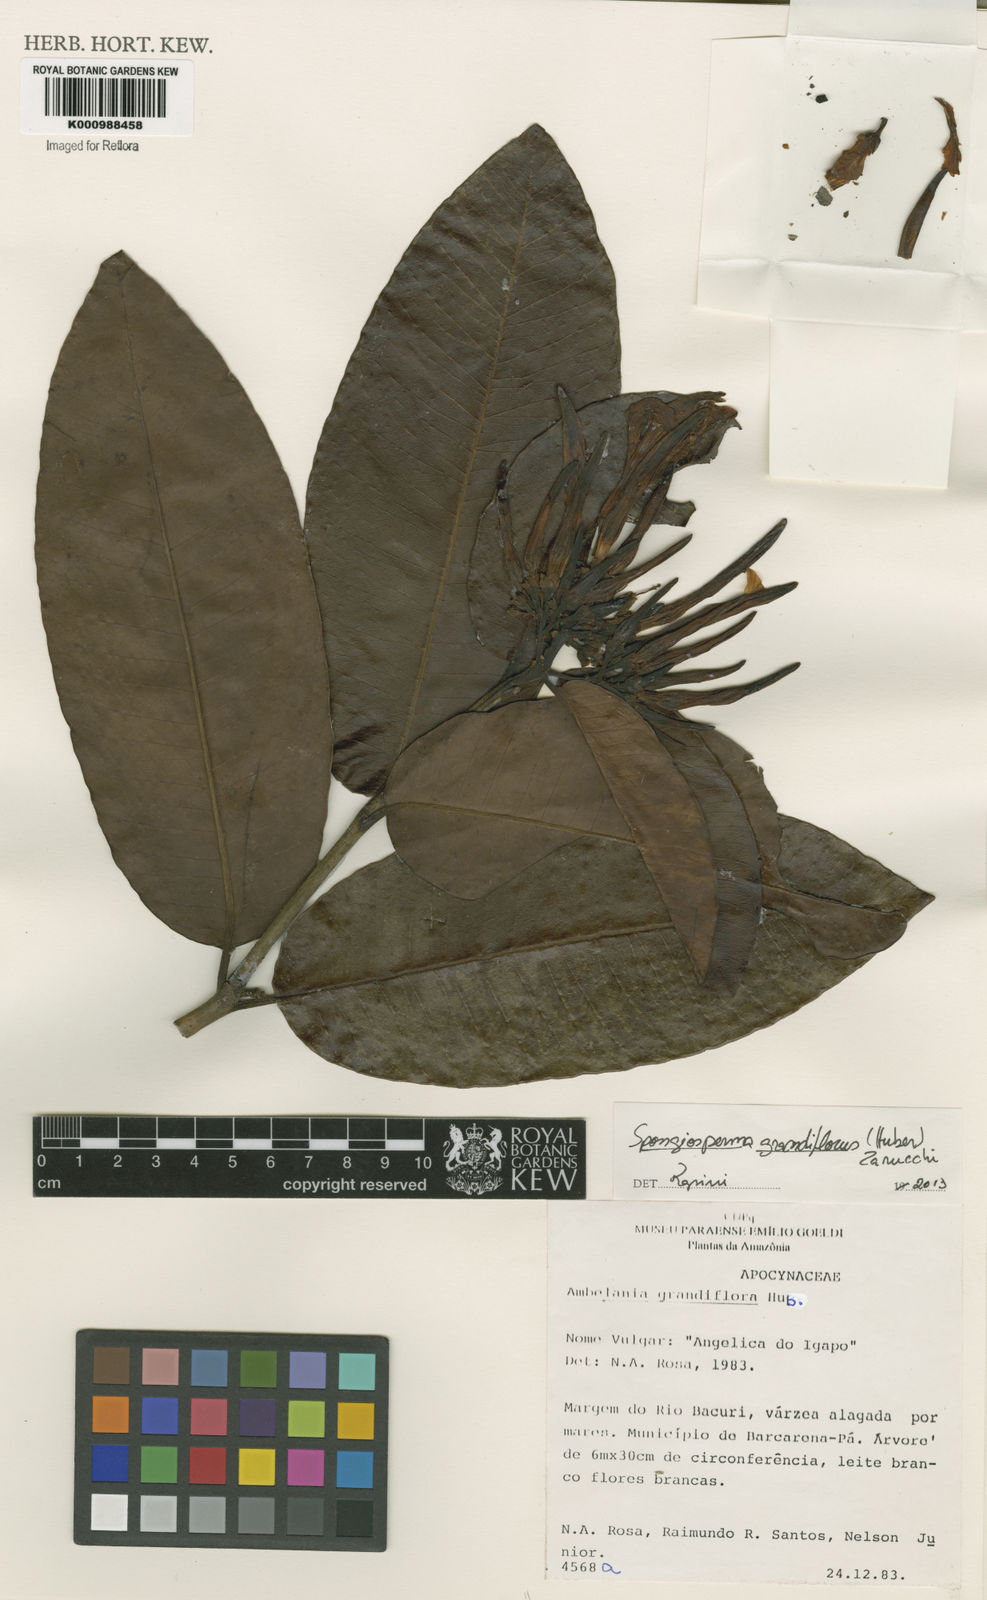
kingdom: Plantae
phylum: Tracheophyta
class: Magnoliopsida
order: Gentianales
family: Apocynaceae
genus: Aspidosperma
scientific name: Aspidosperma
